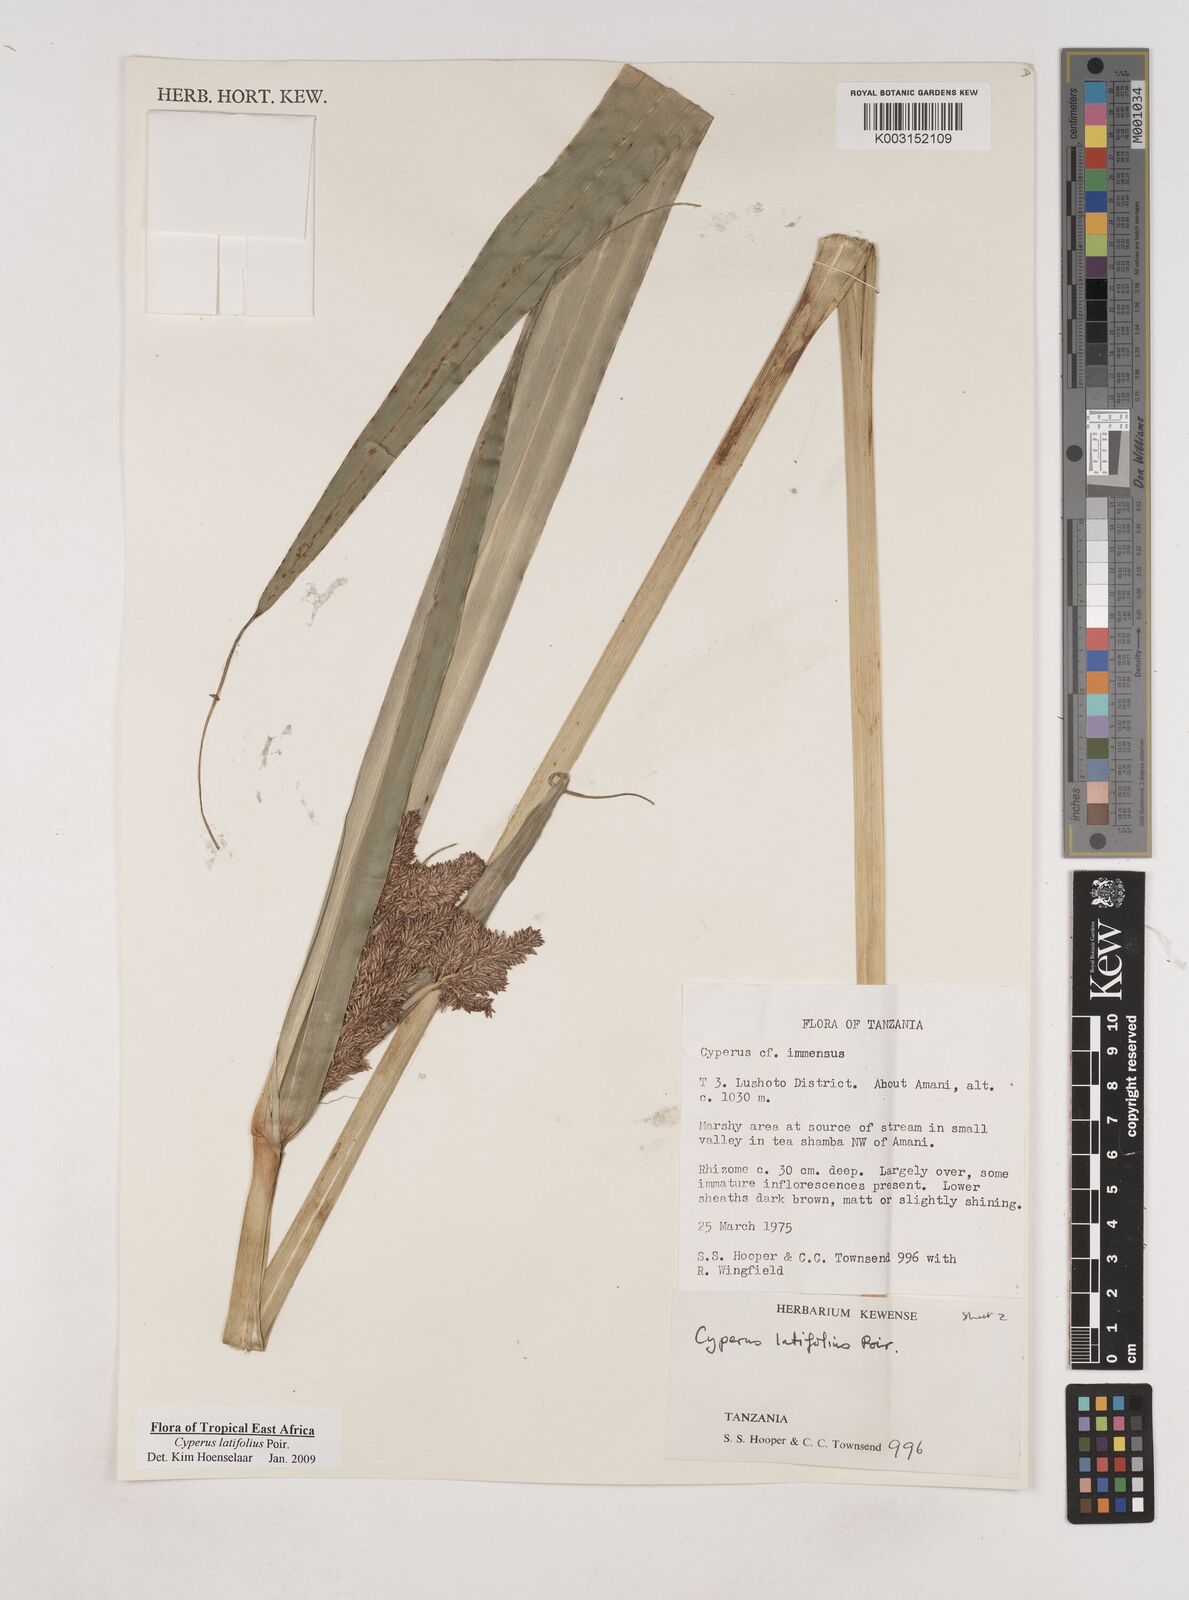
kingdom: Plantae
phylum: Tracheophyta
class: Liliopsida
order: Poales
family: Cyperaceae
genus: Cyperus
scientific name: Cyperus latifolius
